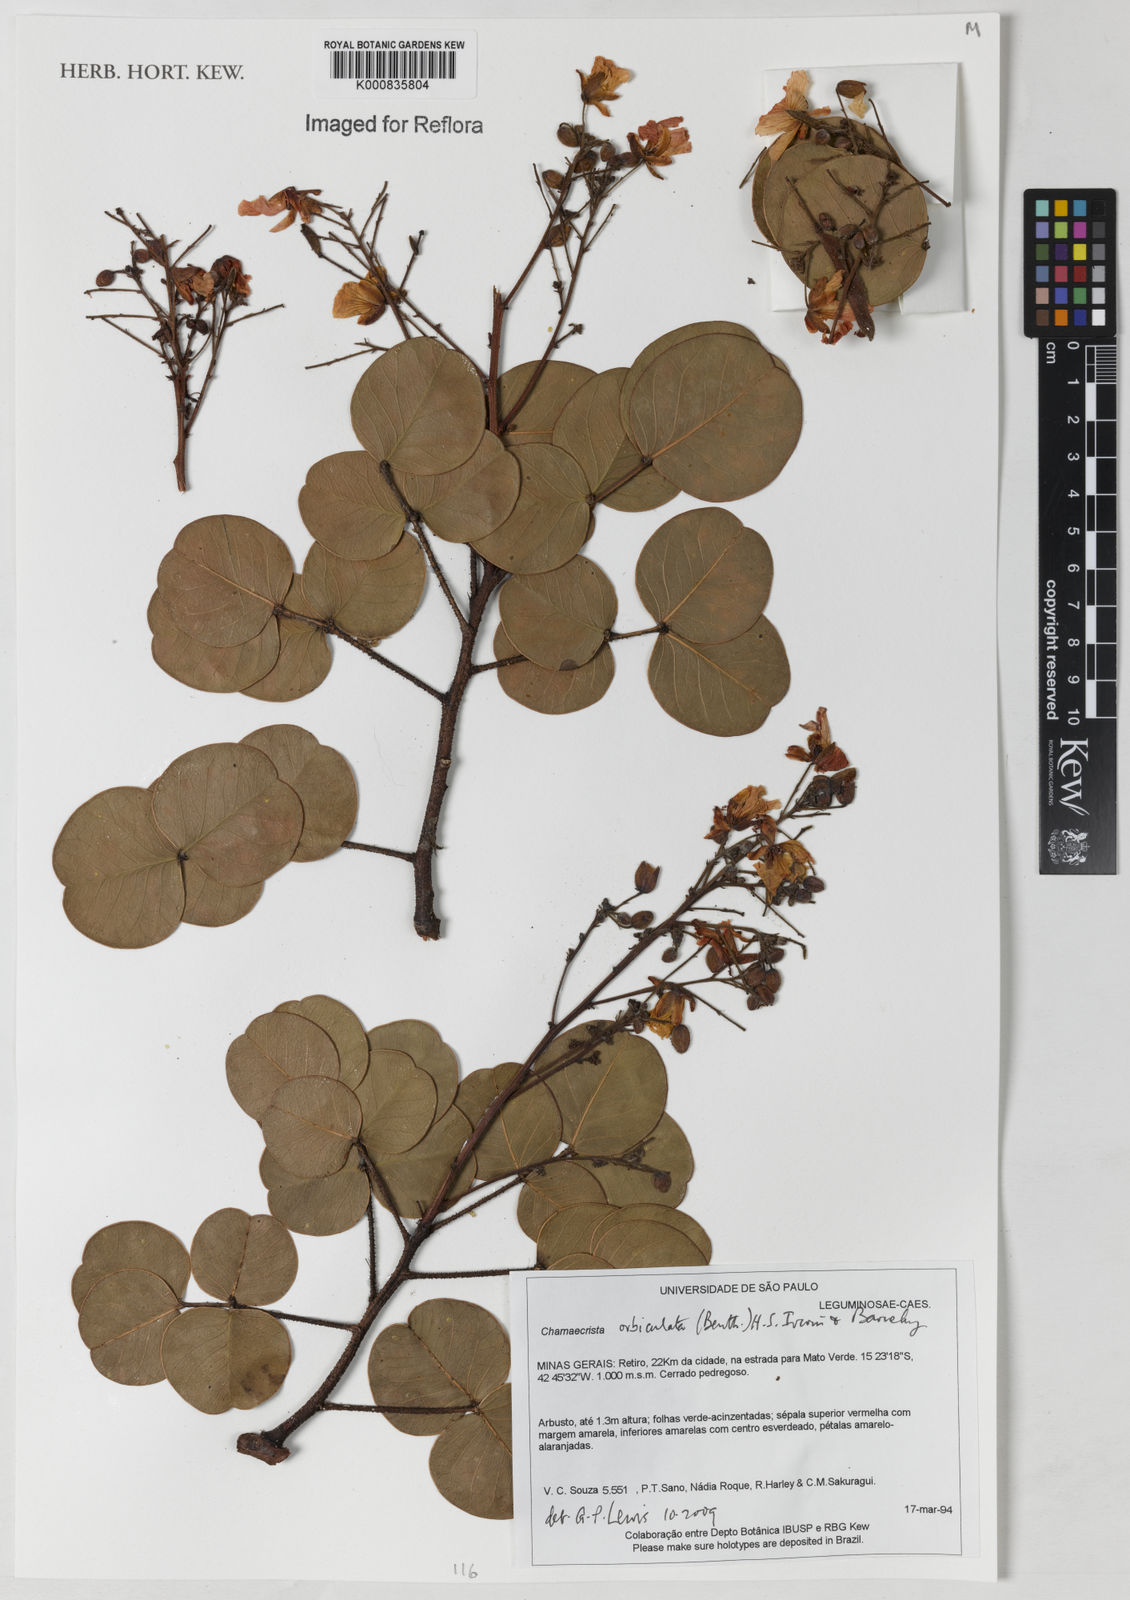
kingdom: Plantae
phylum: Tracheophyta
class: Magnoliopsida
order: Fabales
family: Fabaceae
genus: Chamaecrista
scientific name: Chamaecrista orbiculata
